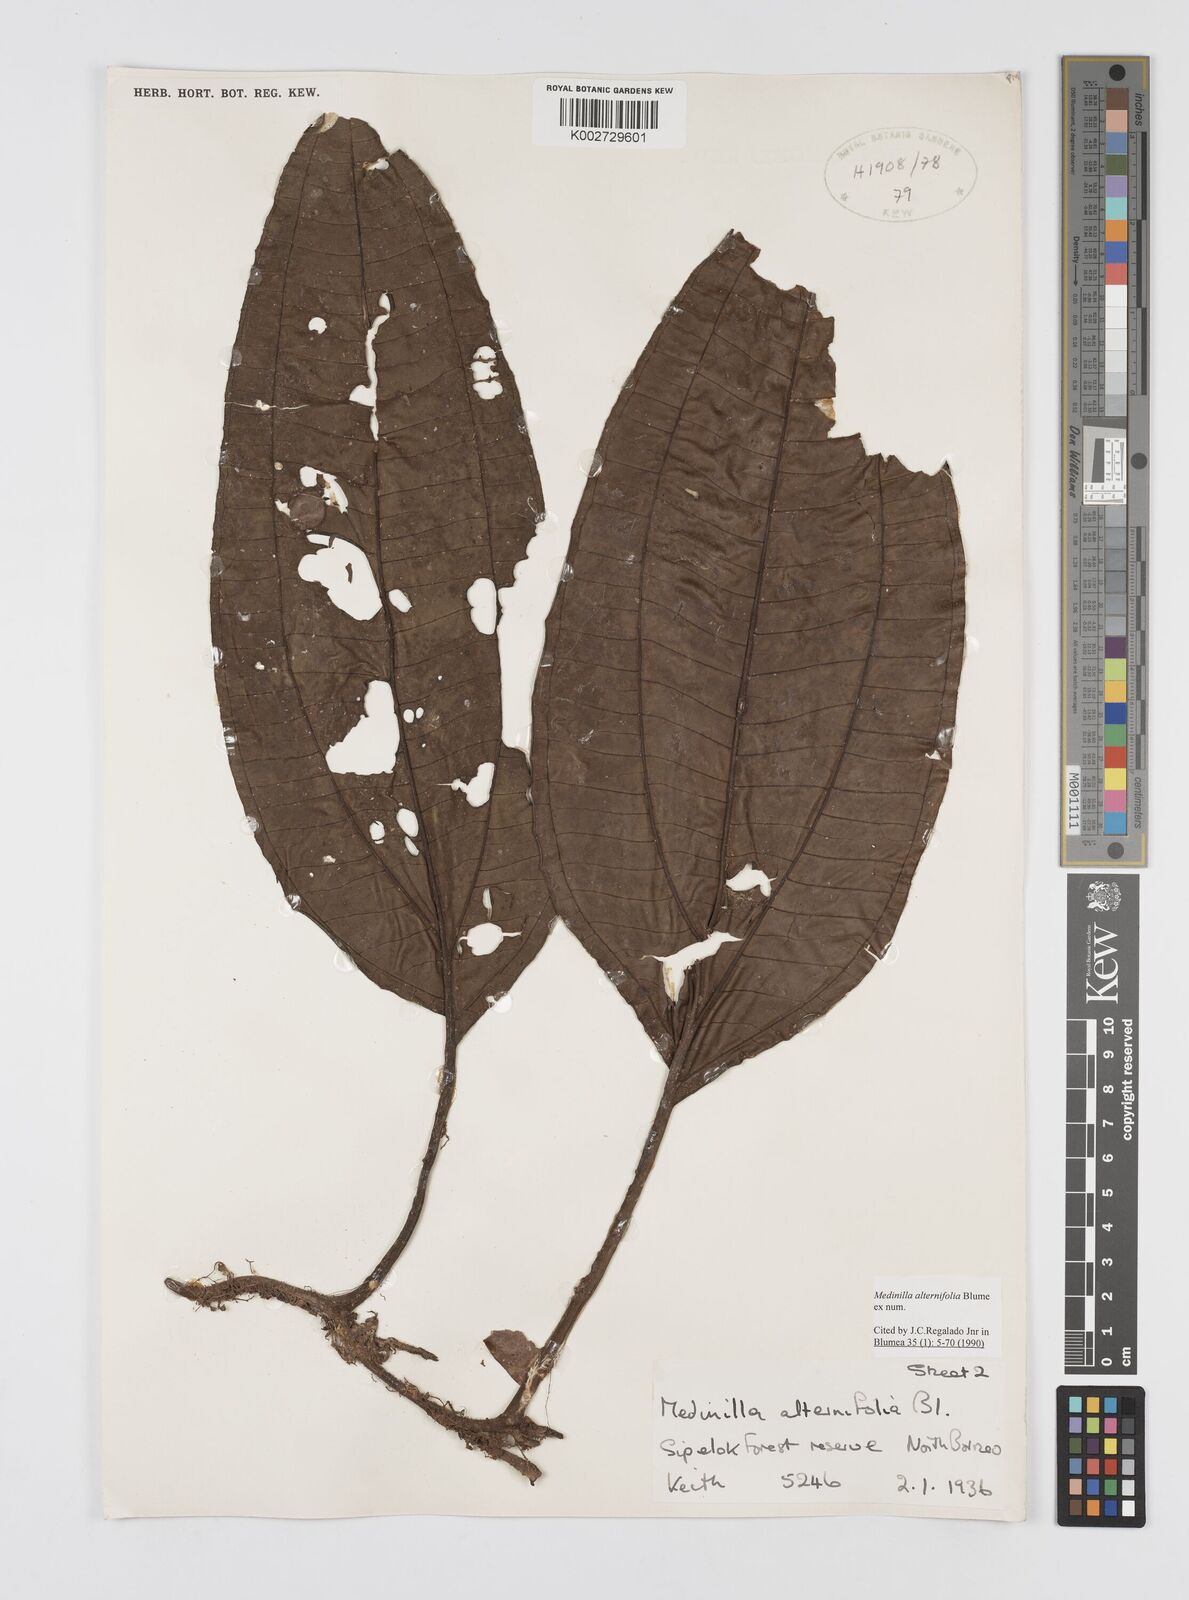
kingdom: Plantae
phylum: Tracheophyta
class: Magnoliopsida
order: Myrtales
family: Melastomataceae
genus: Heteroblemma
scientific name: Heteroblemma alternifolium
